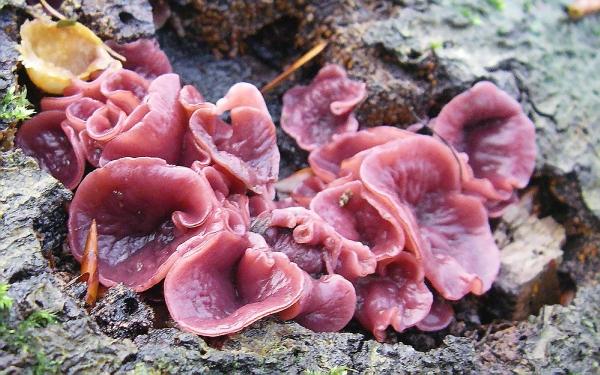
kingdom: Fungi
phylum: Ascomycota
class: Leotiomycetes
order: Helotiales
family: Gelatinodiscaceae
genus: Ascocoryne
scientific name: Ascocoryne cylichnium
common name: stor sejskive
